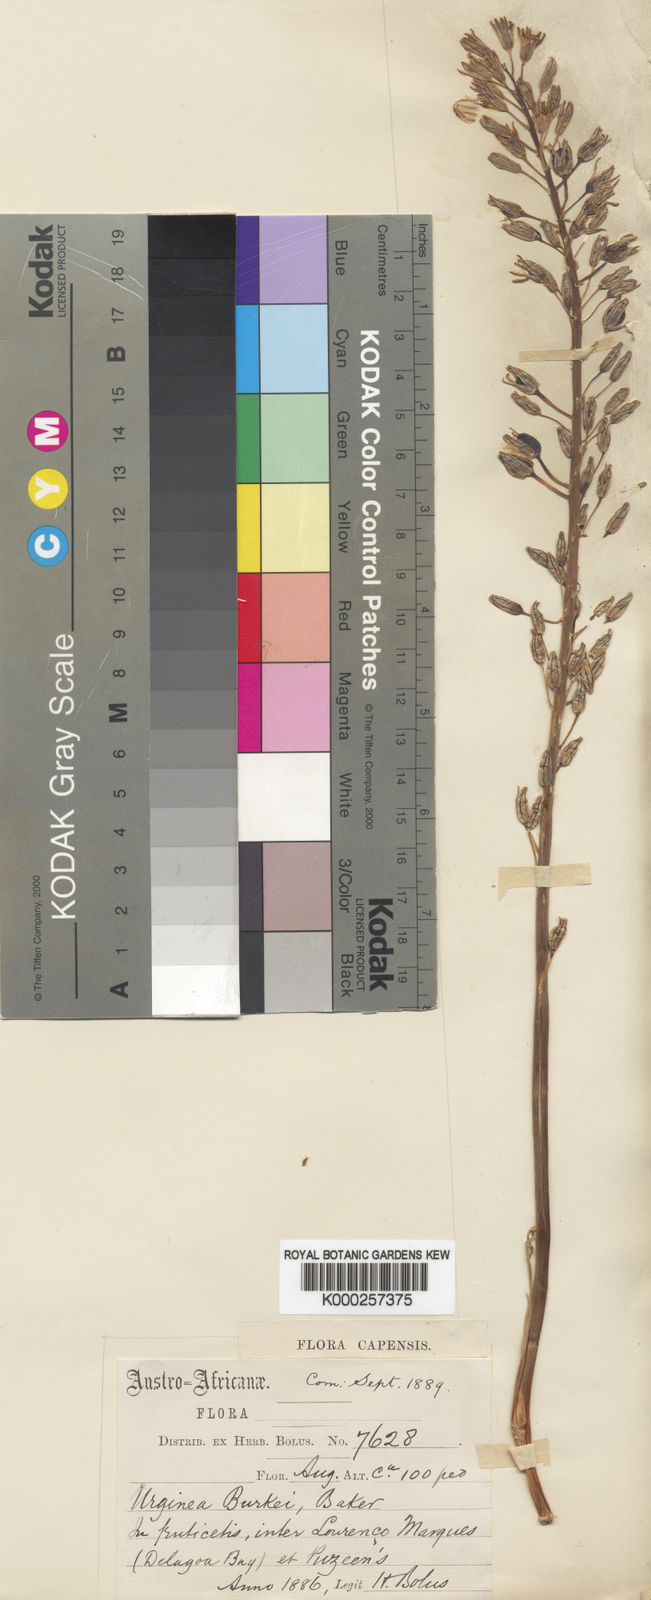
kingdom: Plantae
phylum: Tracheophyta
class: Liliopsida
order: Asparagales
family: Asparagaceae
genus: Drimia
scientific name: Drimia sanguinea
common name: Transvaal slangkop
